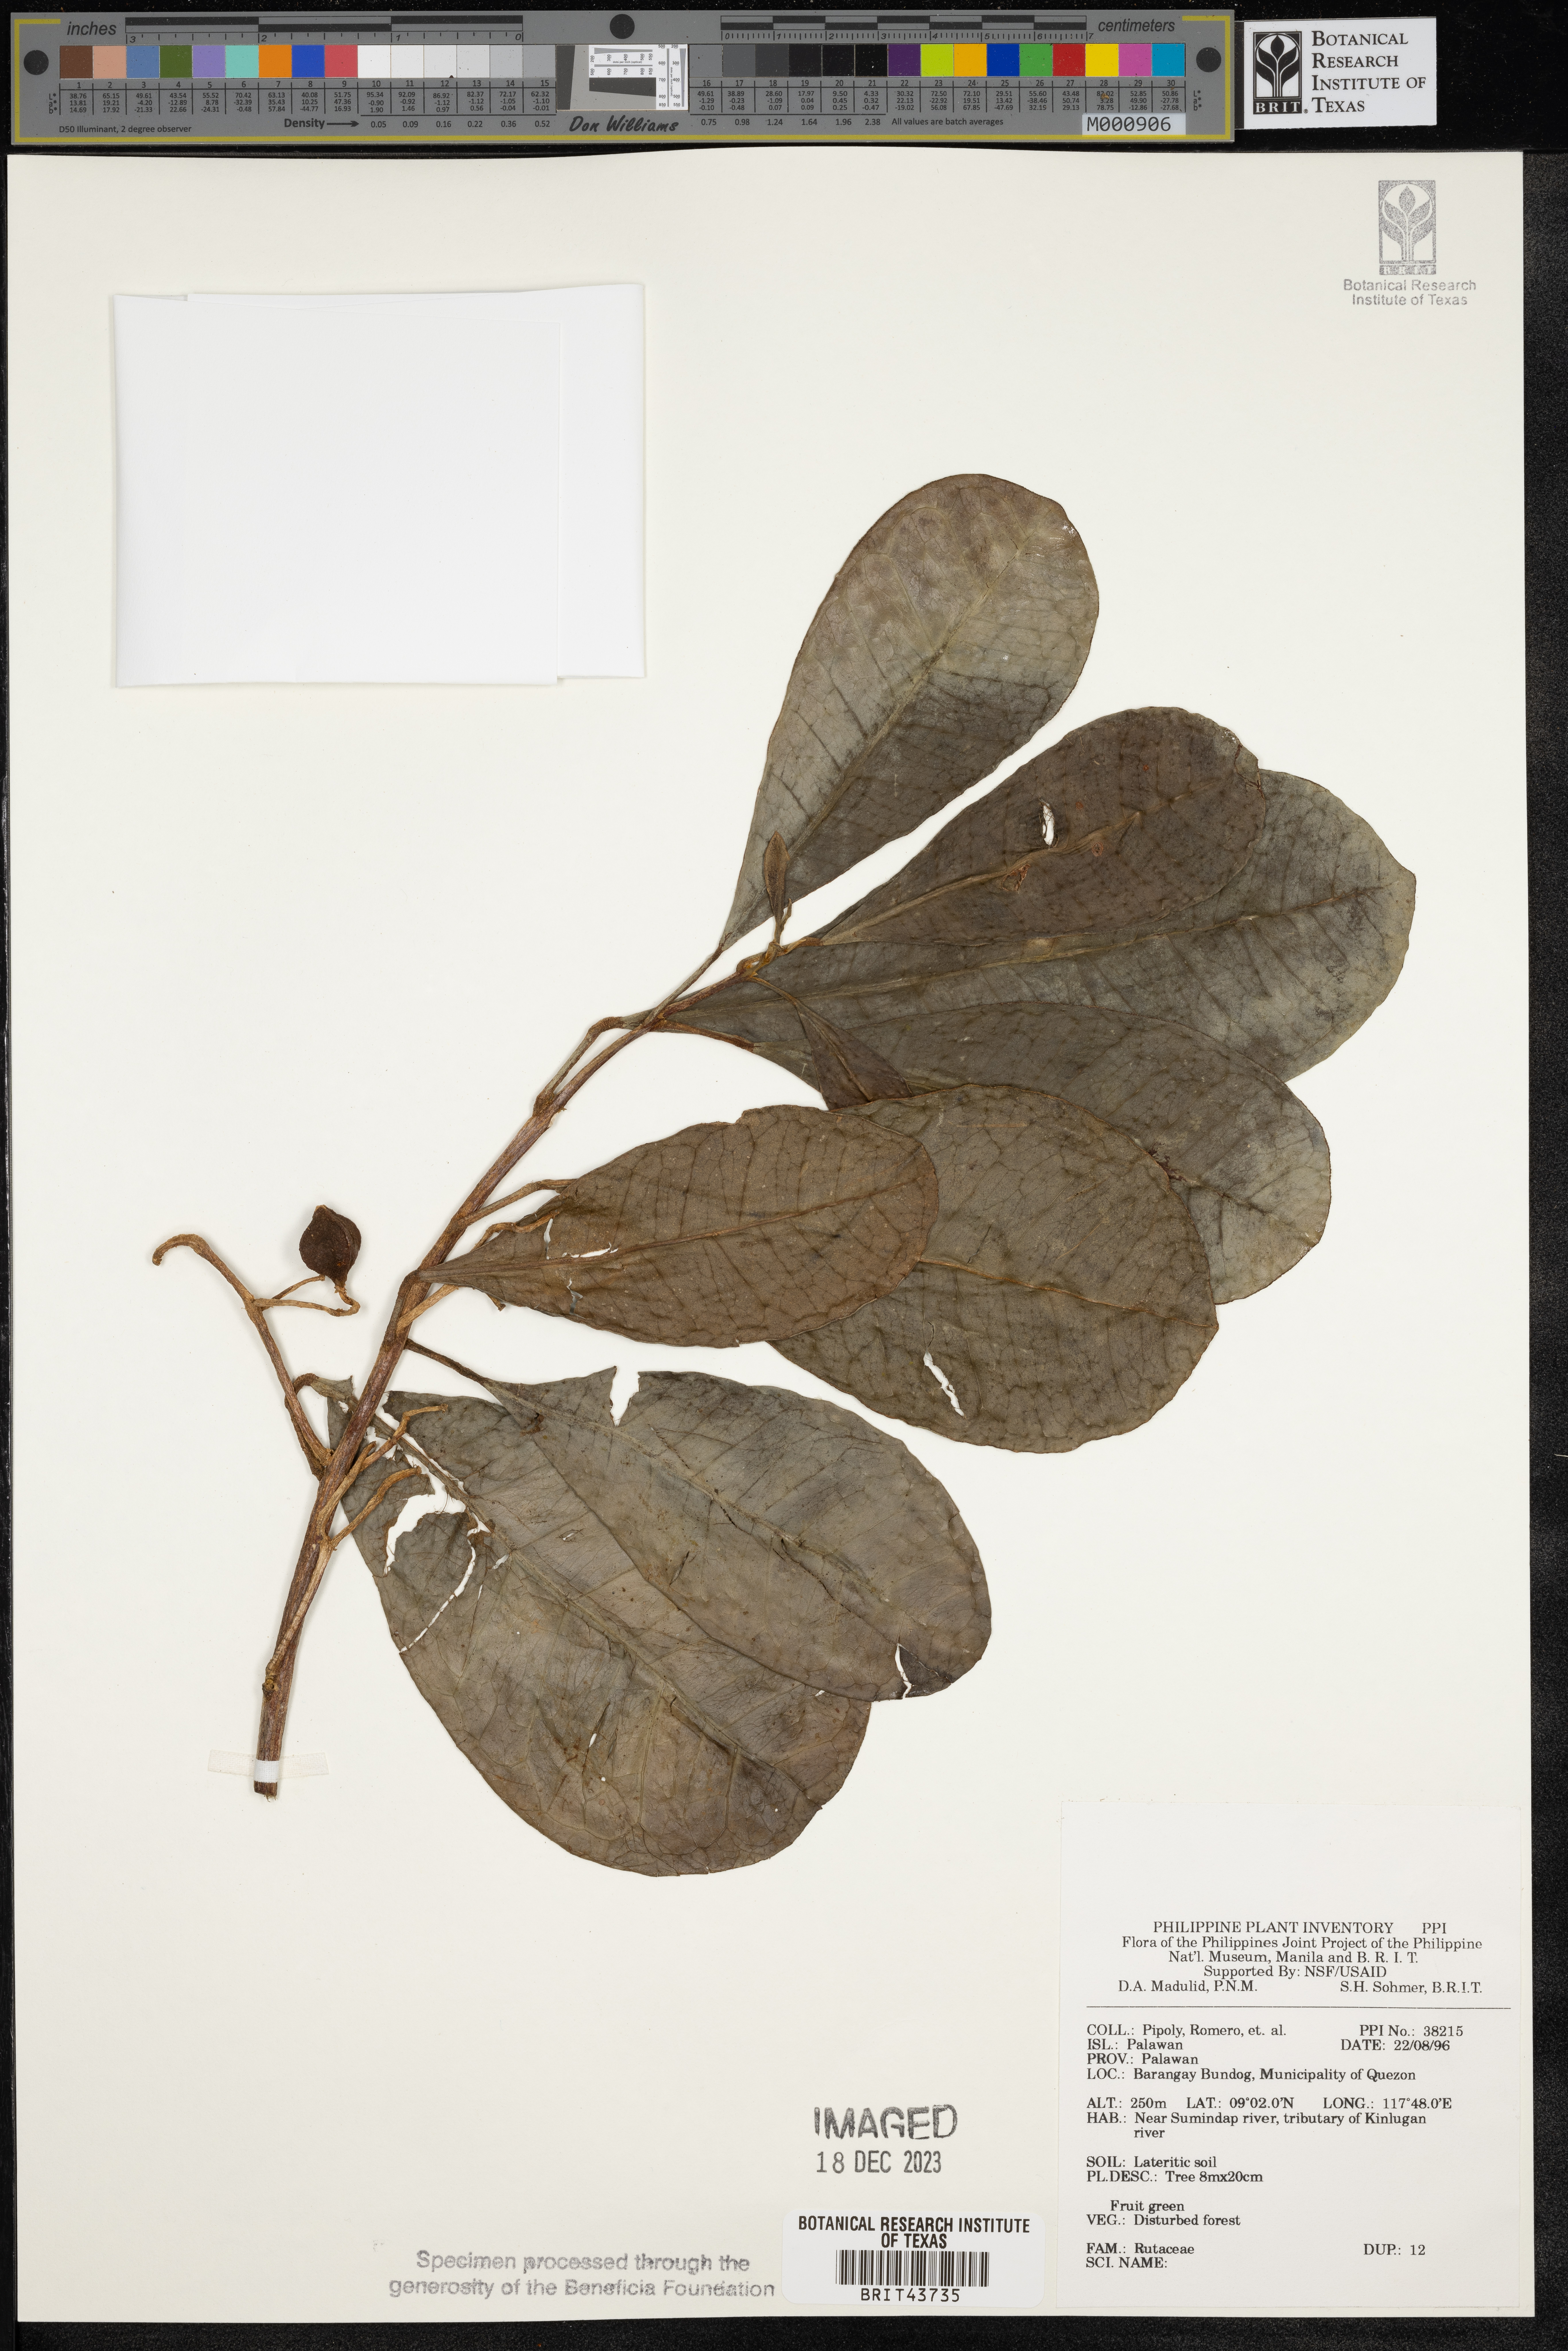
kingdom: Plantae
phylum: Tracheophyta
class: Magnoliopsida
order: Sapindales
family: Rutaceae
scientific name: Rutaceae
